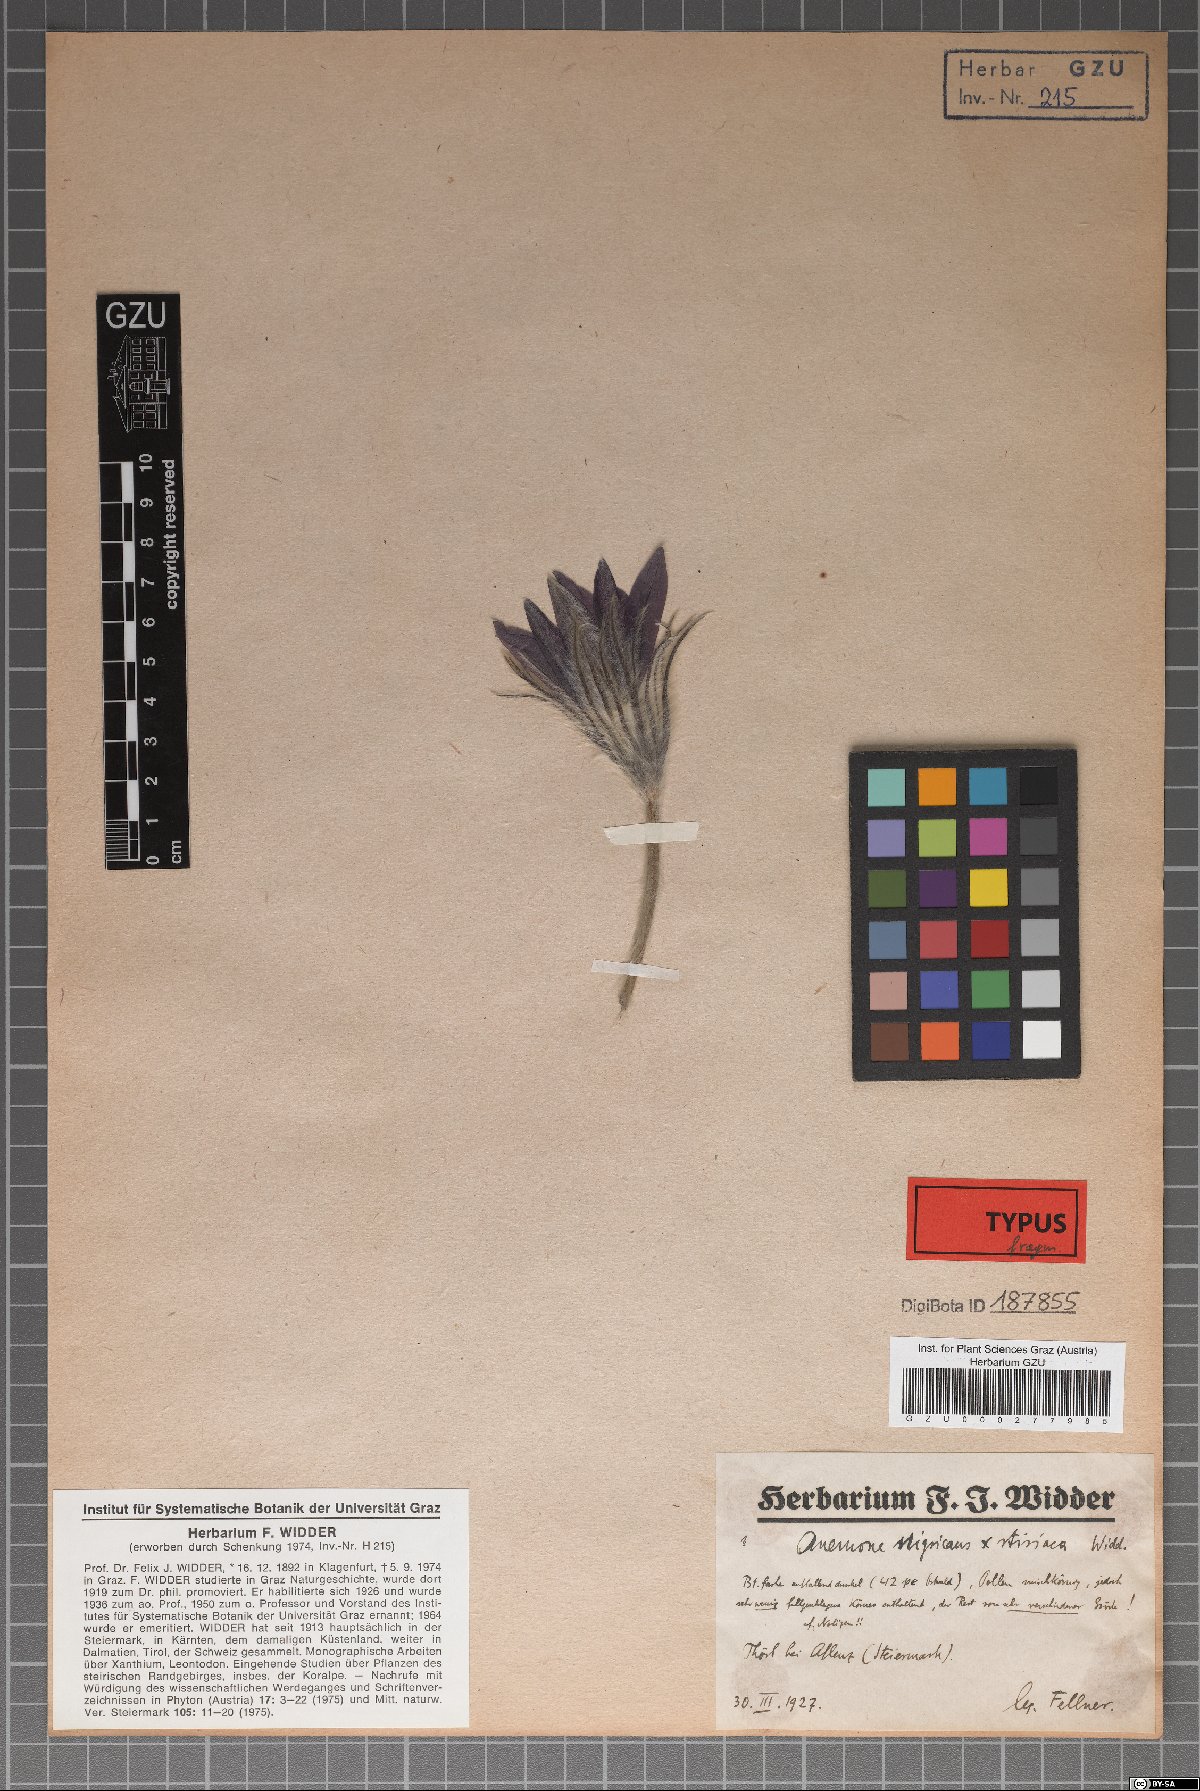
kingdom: Plantae
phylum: Tracheophyta
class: Magnoliopsida
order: Ranunculales
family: Ranunculaceae
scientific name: Ranunculaceae
